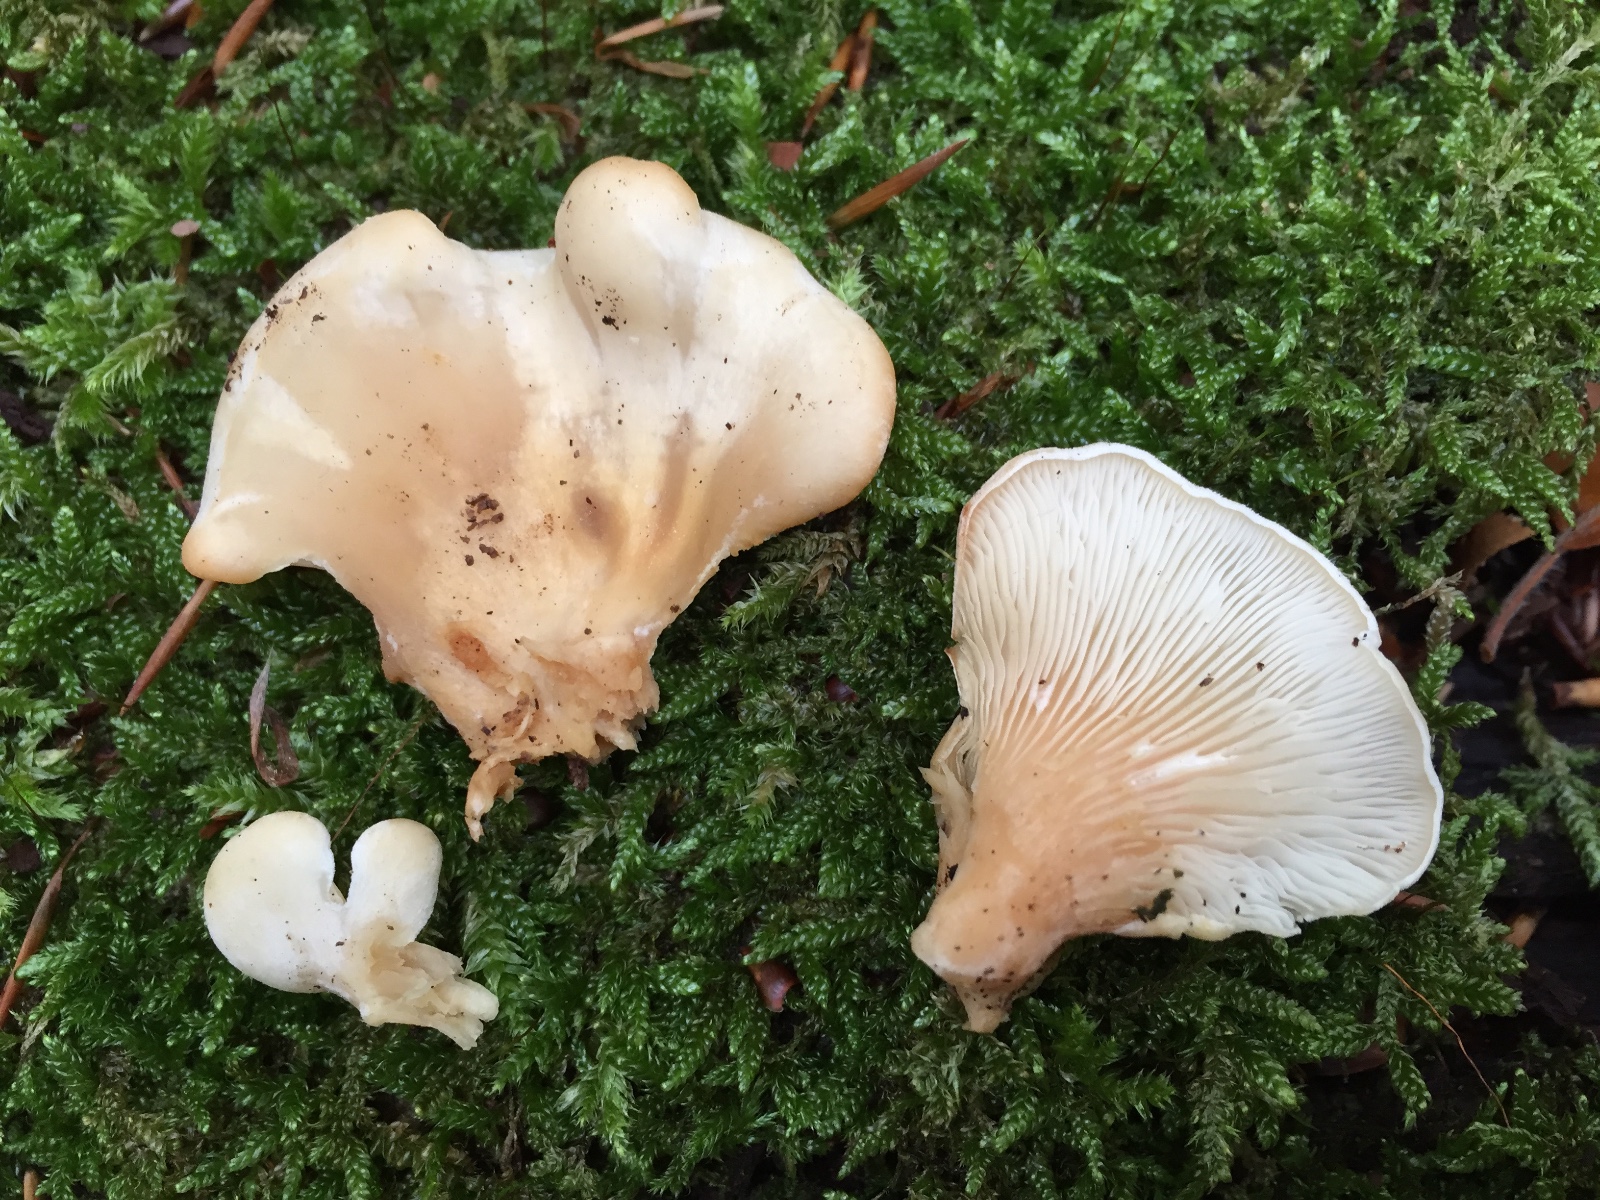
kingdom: Fungi
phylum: Basidiomycota
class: Agaricomycetes
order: Agaricales
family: Pleurotaceae
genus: Hohenbuehelia
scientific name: Hohenbuehelia auriscalpium
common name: spatel-filthat
